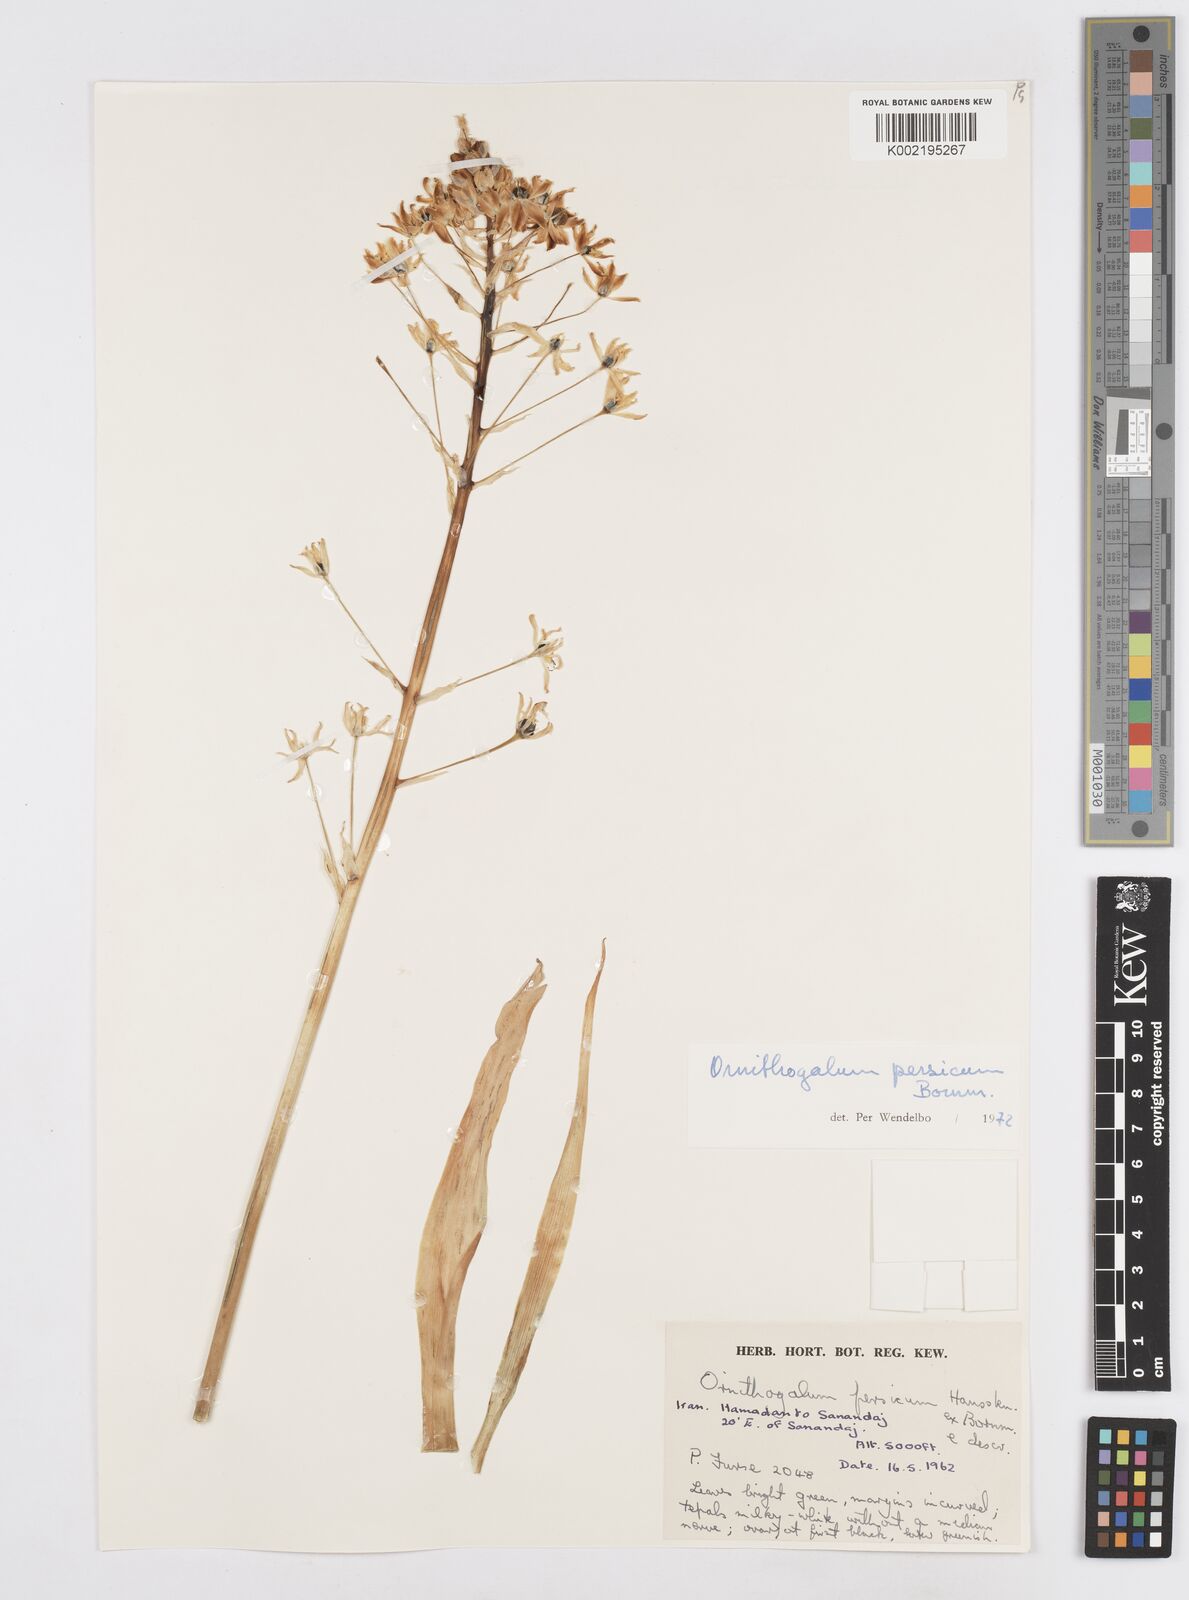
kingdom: Plantae
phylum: Tracheophyta
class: Liliopsida
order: Asparagales
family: Asparagaceae
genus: Ornithogalum
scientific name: Ornithogalum persicum
